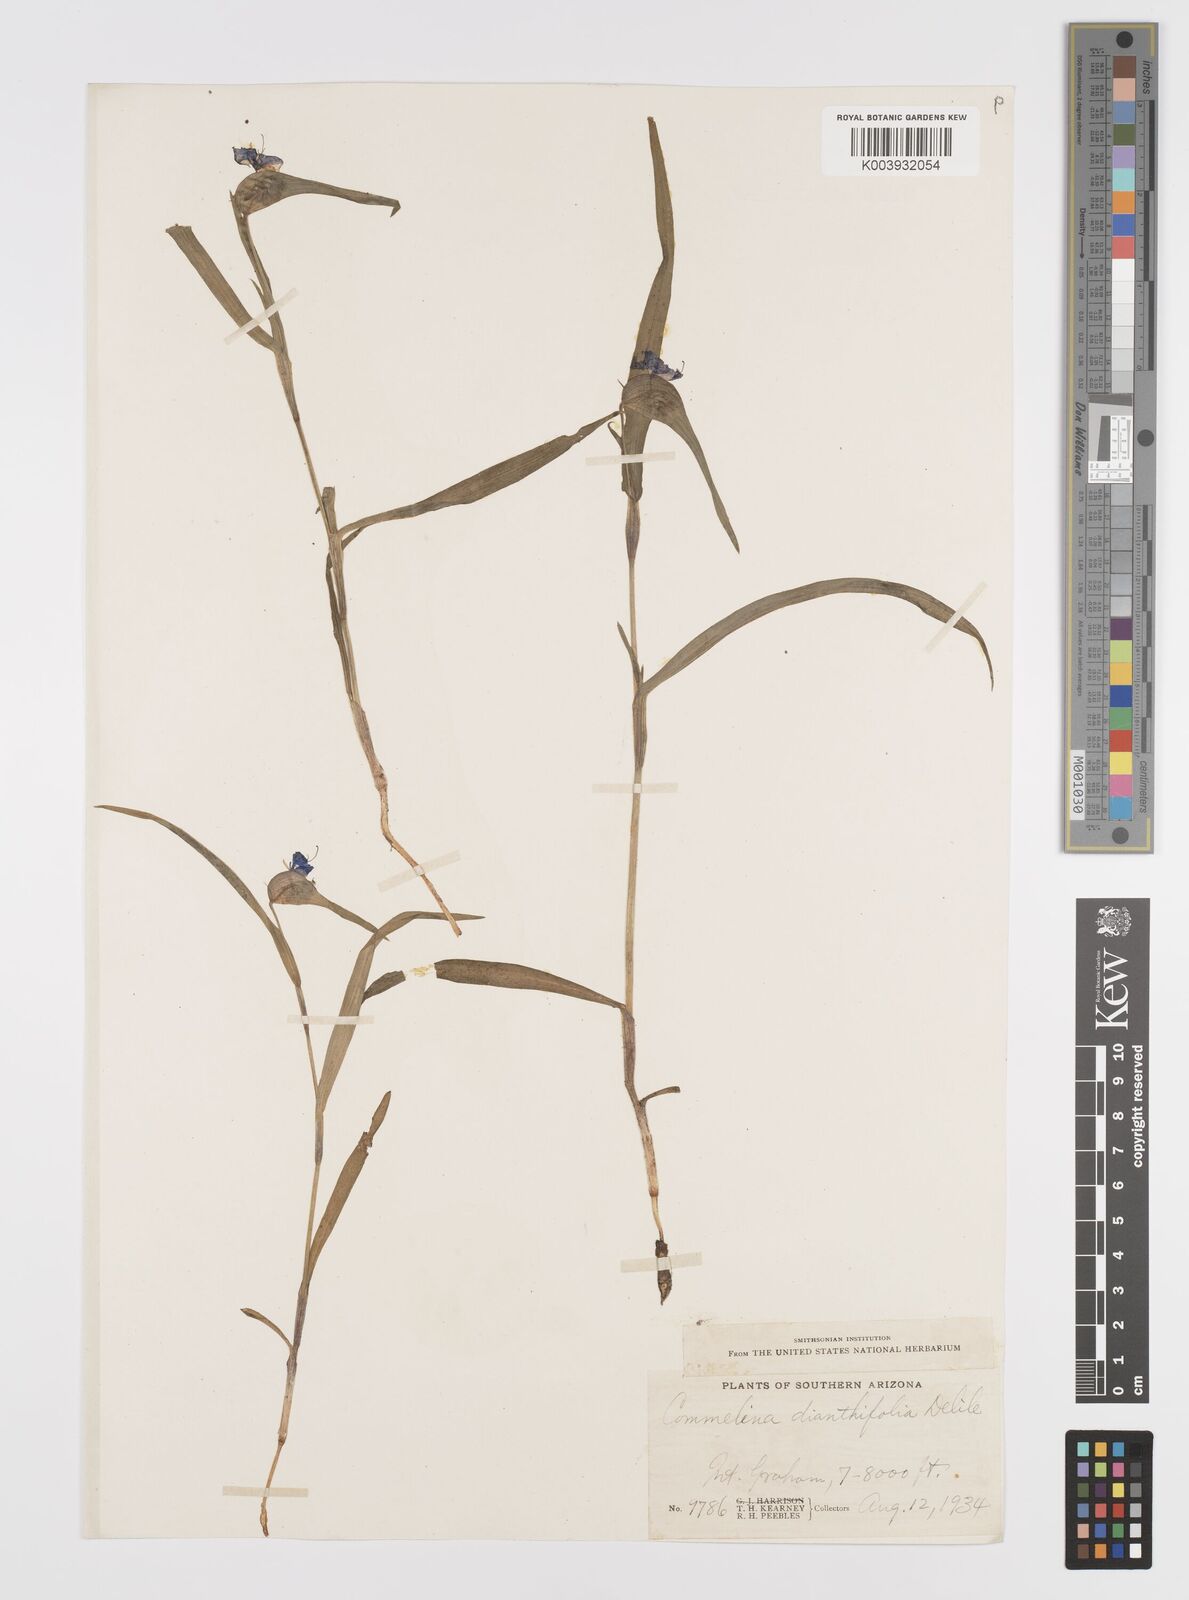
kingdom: Plantae
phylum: Tracheophyta
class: Liliopsida
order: Commelinales
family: Commelinaceae
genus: Commelina
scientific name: Commelina dianthifolia
